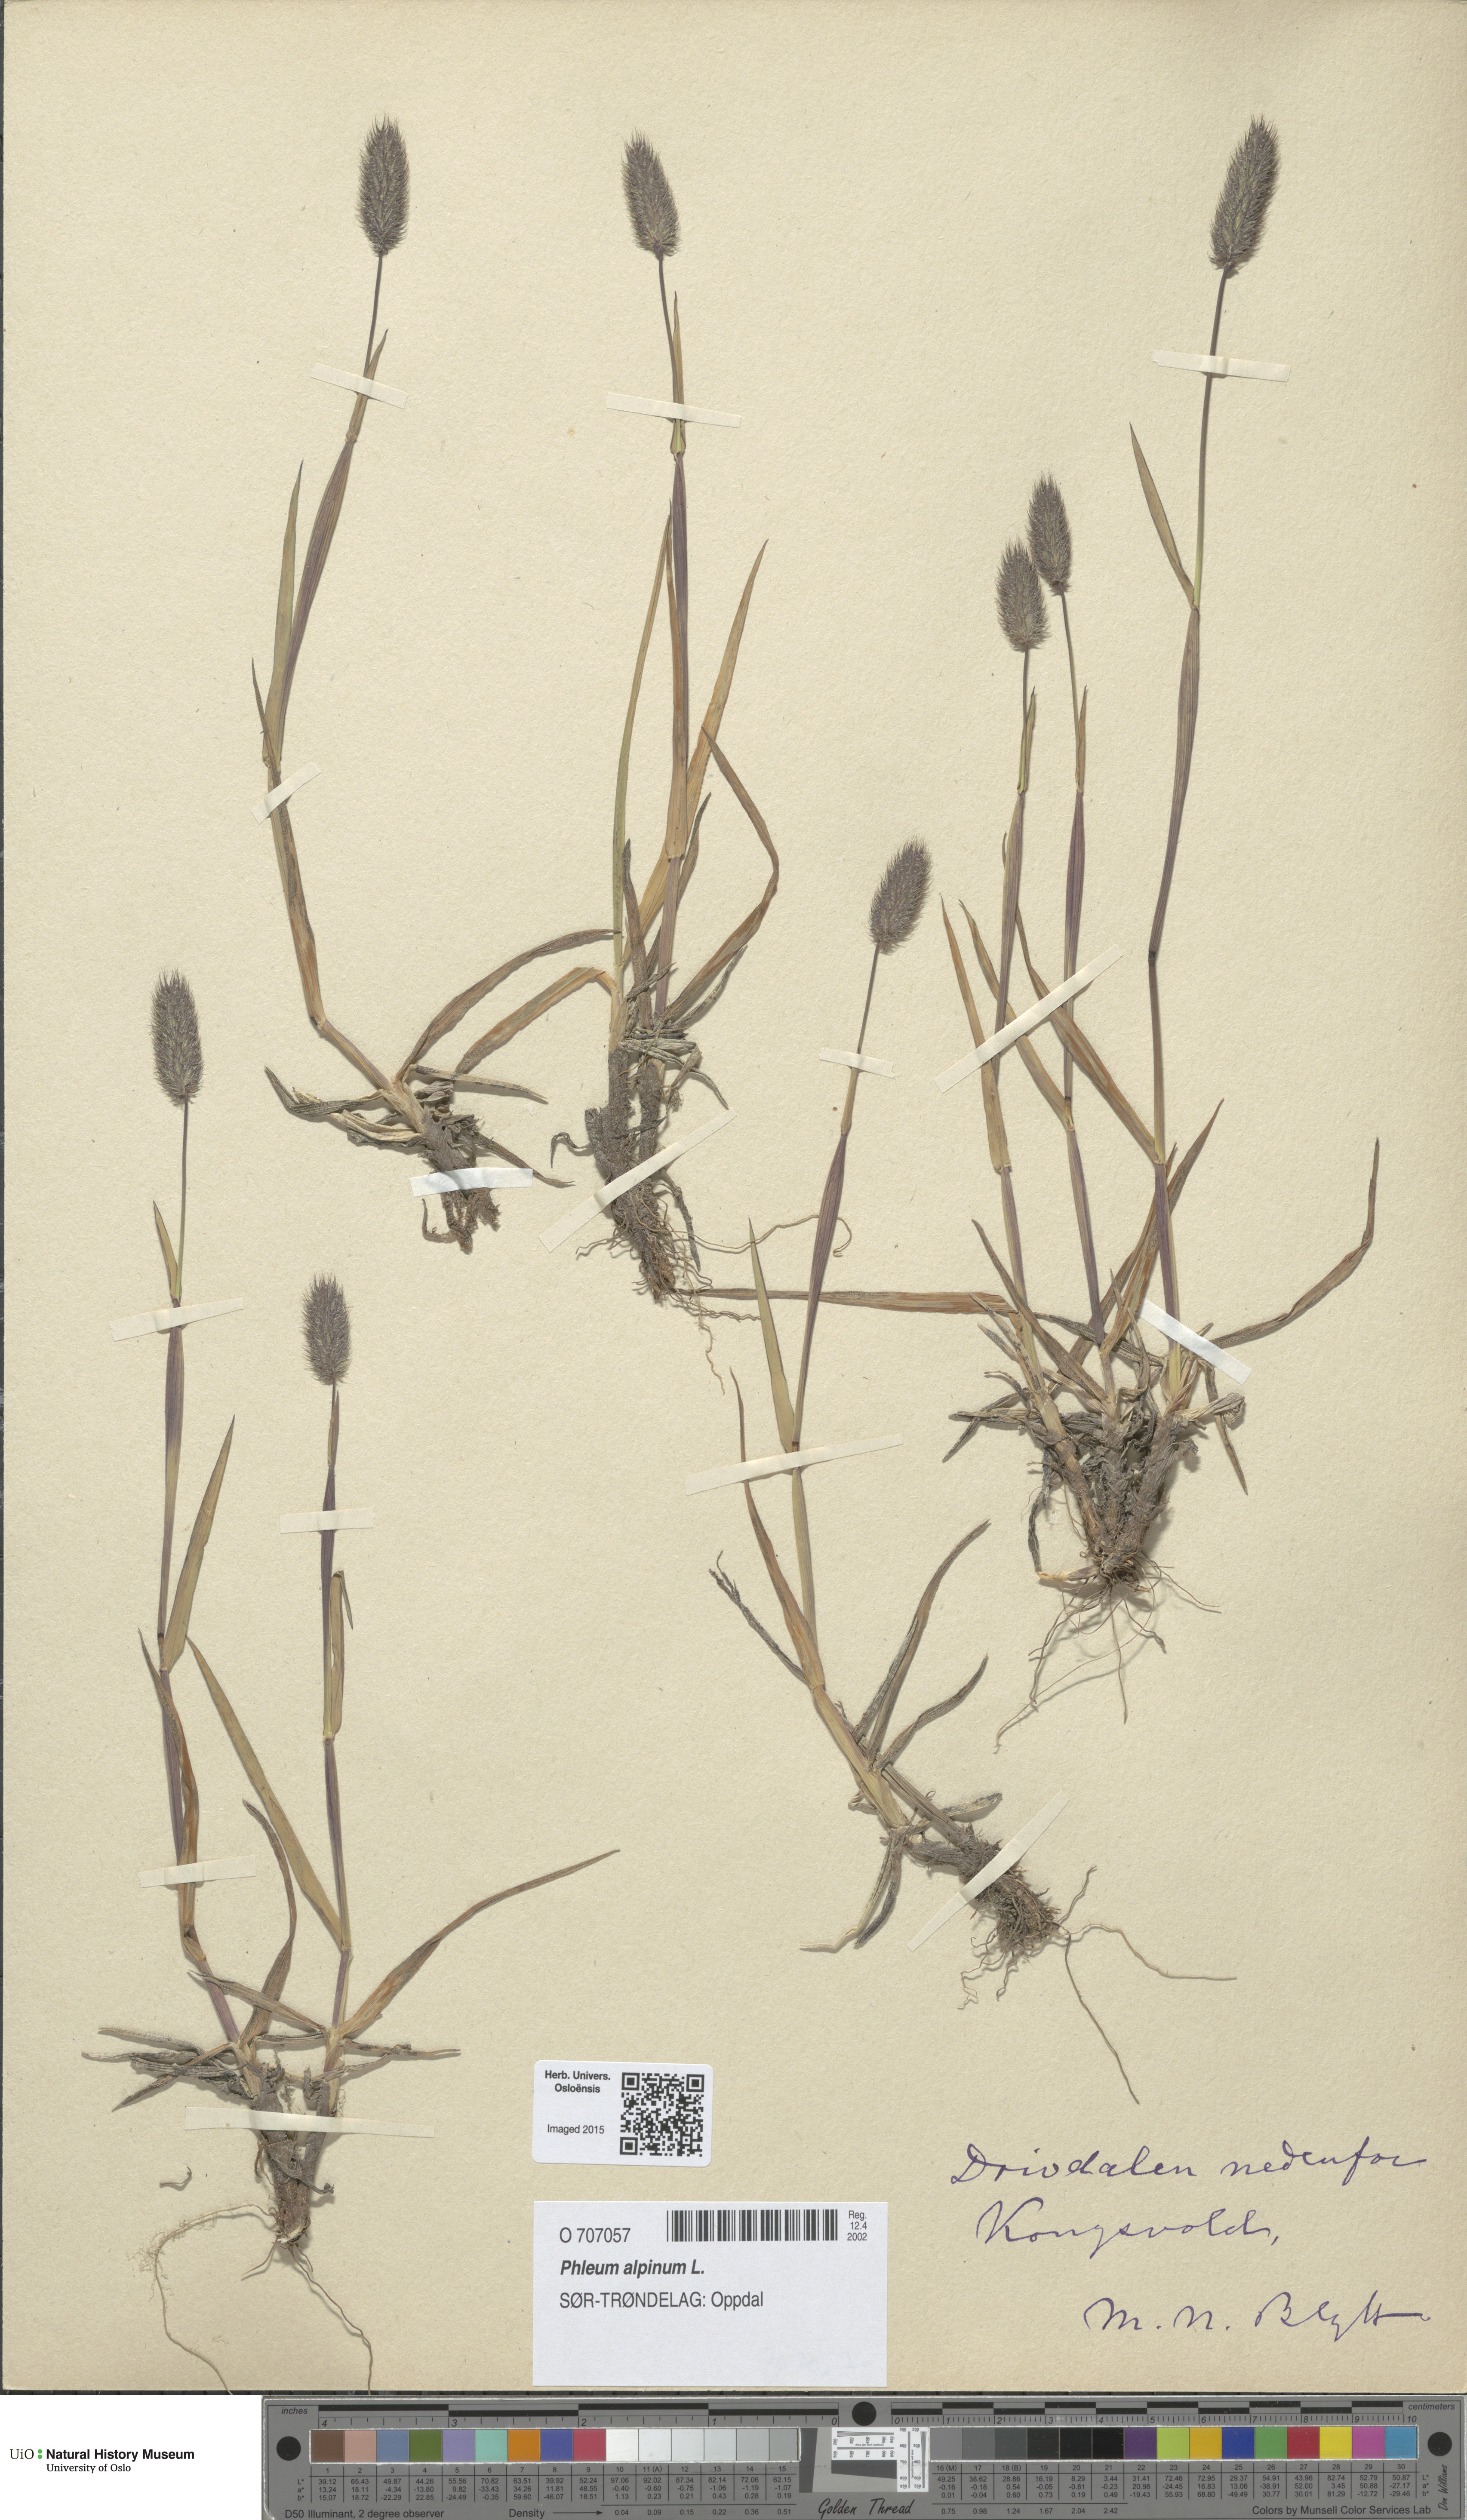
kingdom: Plantae
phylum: Tracheophyta
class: Liliopsida
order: Poales
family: Poaceae
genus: Phleum
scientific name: Phleum alpinum
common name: Alpine cat's-tail
